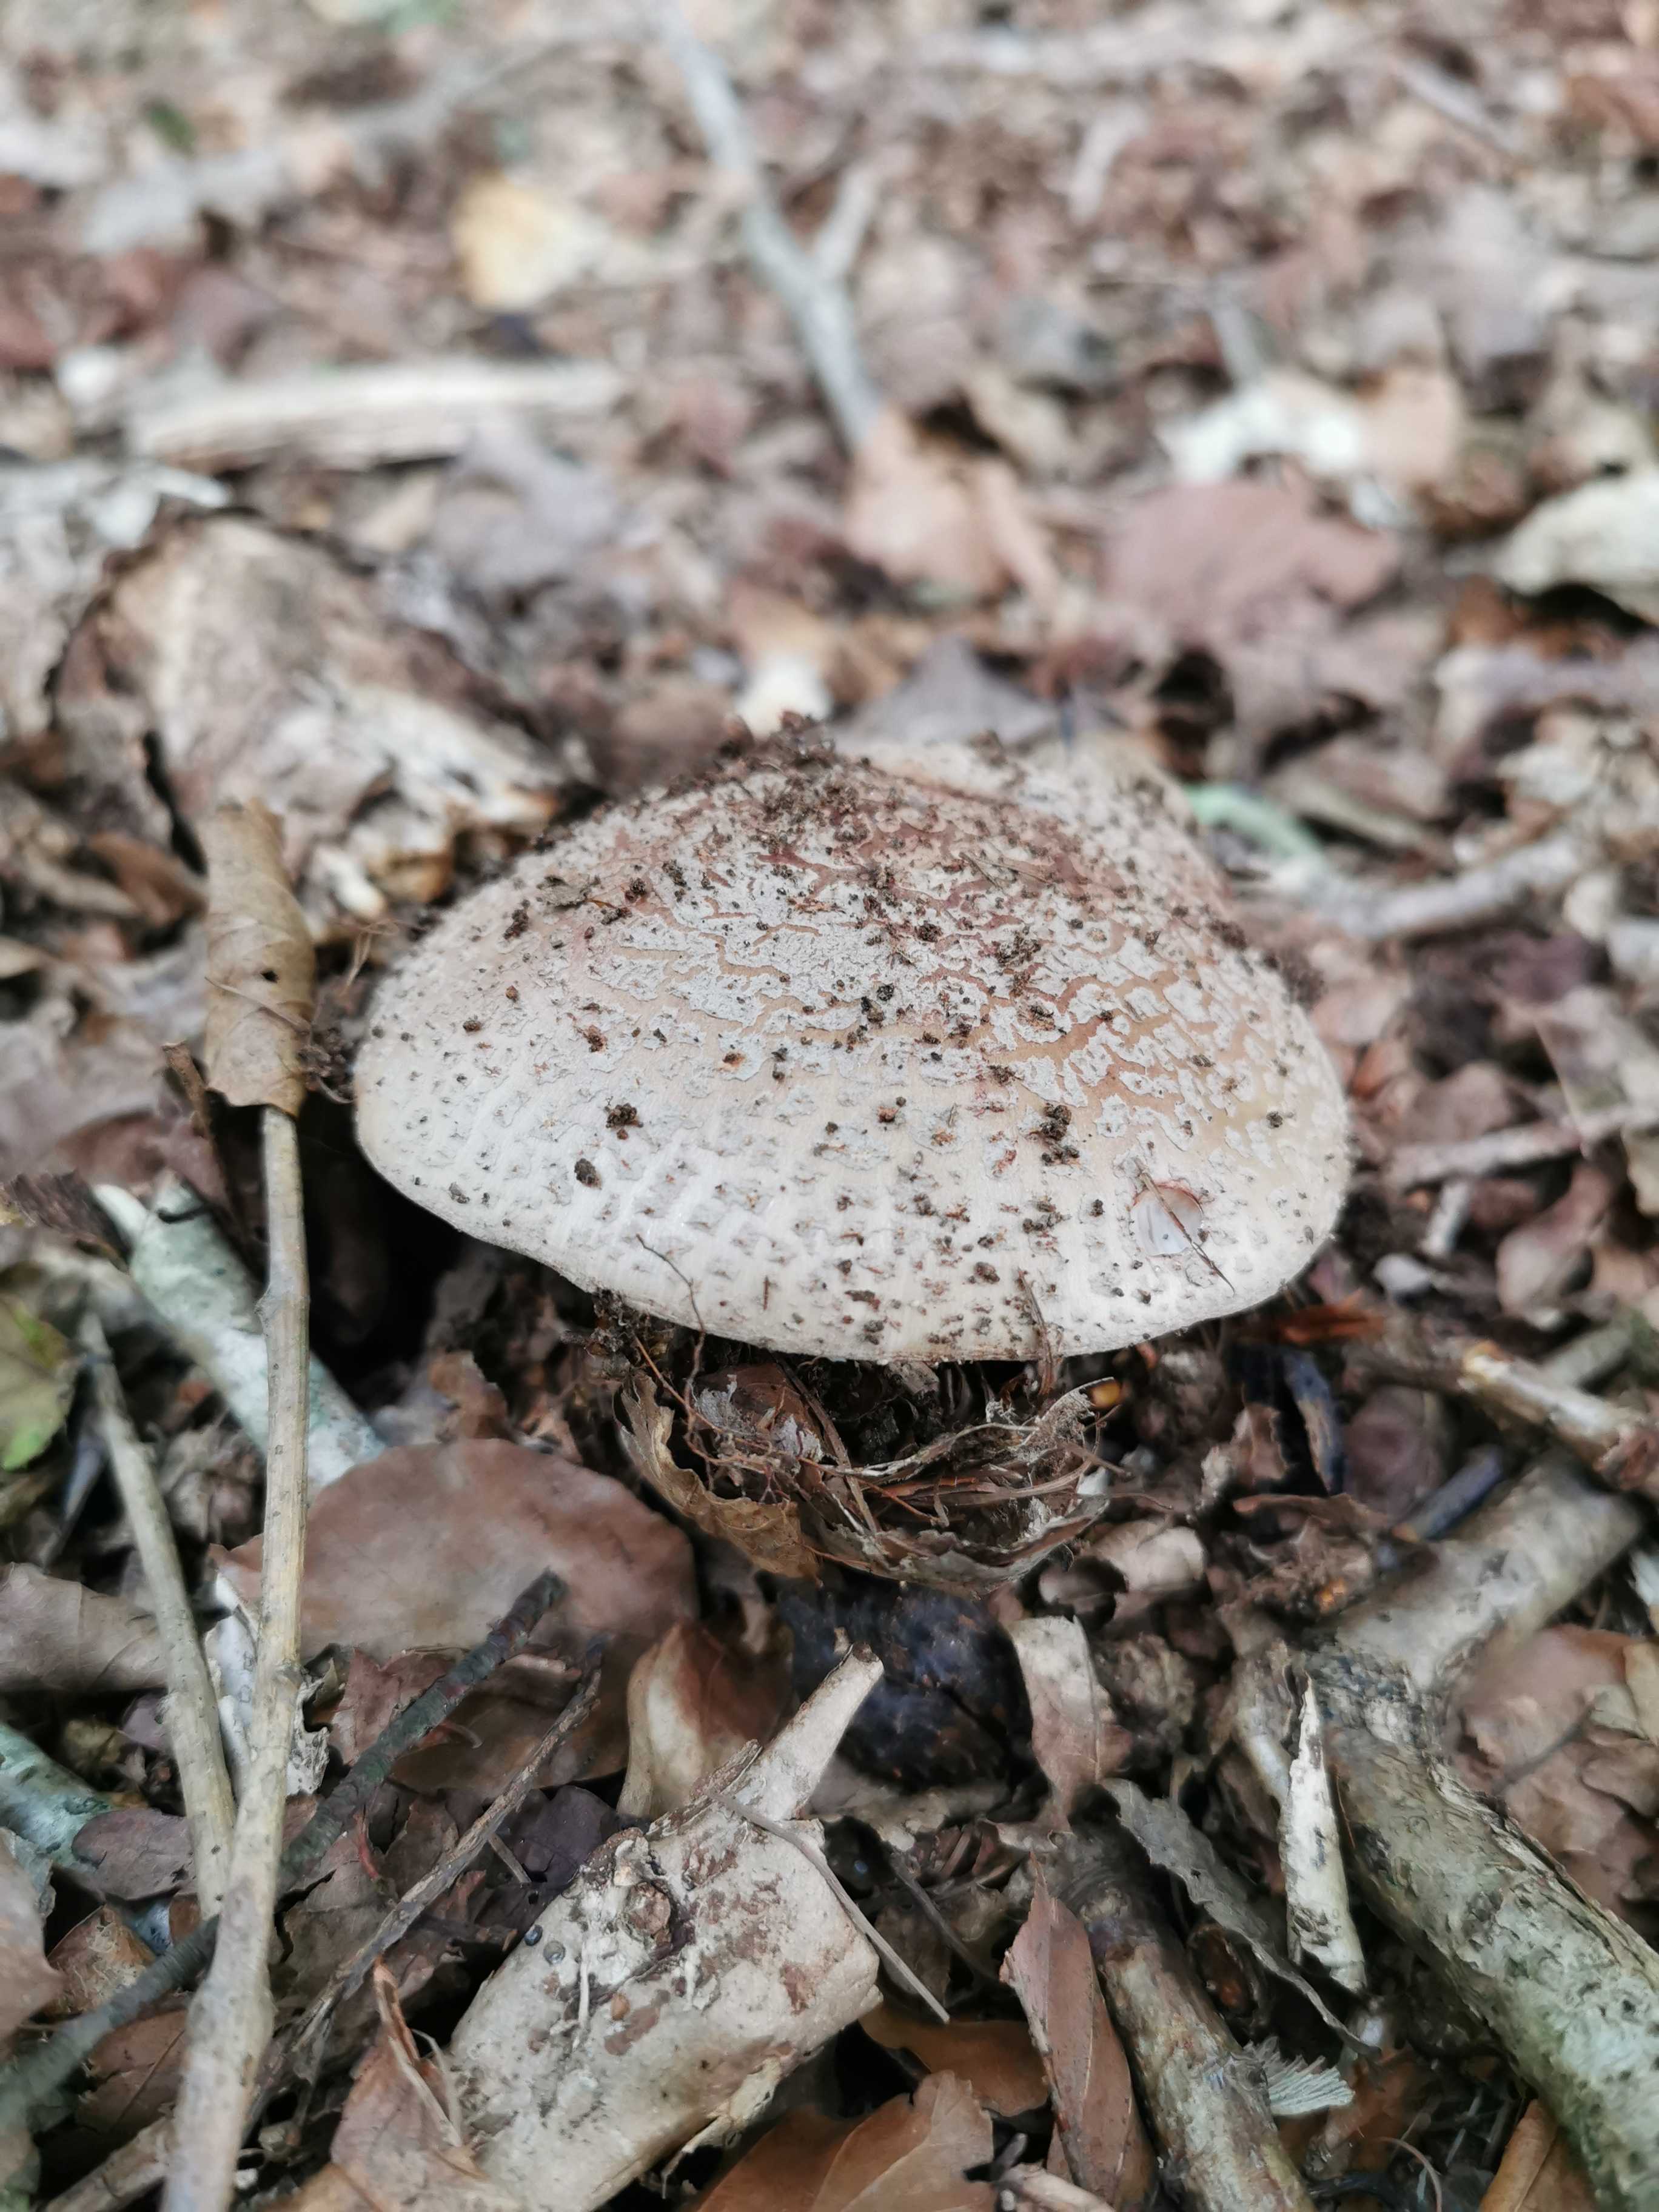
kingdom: Fungi
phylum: Basidiomycota
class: Agaricomycetes
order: Agaricales
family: Amanitaceae
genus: Amanita
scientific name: Amanita rubescens
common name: rødmende fluesvamp
